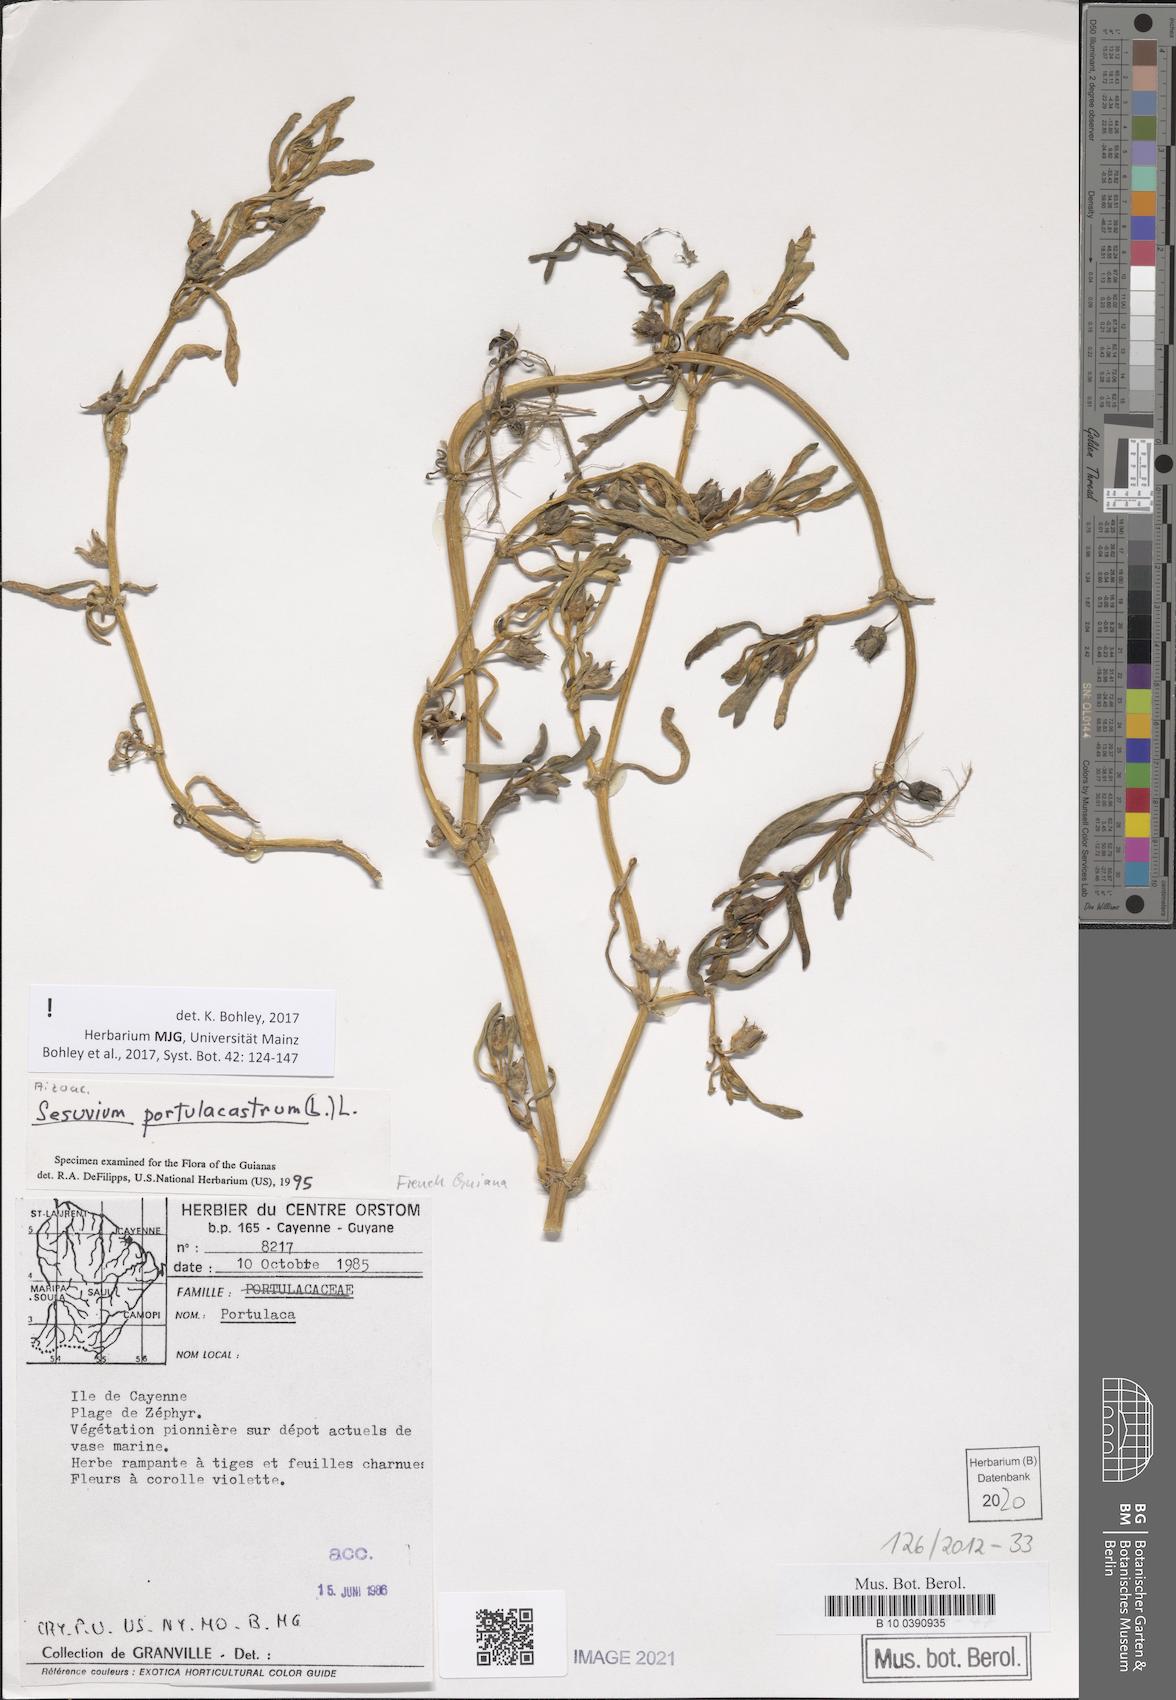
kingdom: Plantae
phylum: Tracheophyta
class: Magnoliopsida
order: Caryophyllales
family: Aizoaceae
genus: Sesuvium
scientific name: Sesuvium portulacastrum
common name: Sea-purslane
